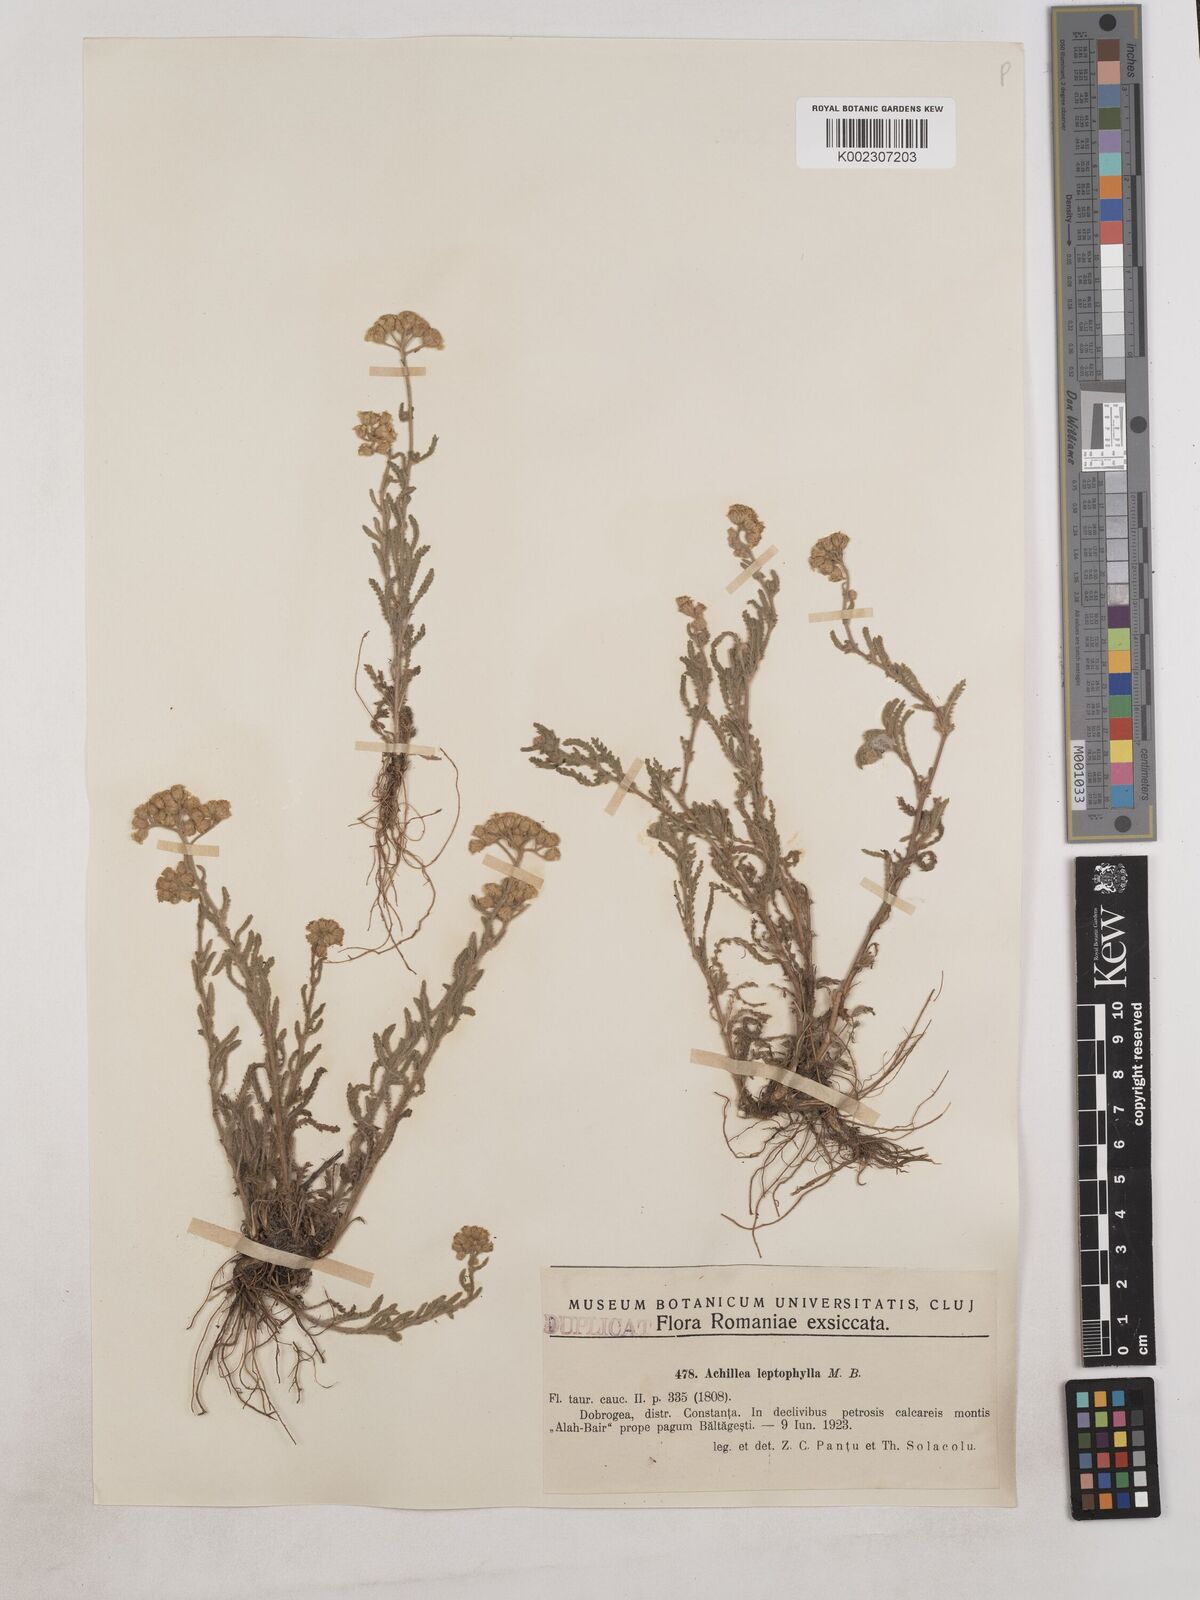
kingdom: Plantae
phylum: Tracheophyta
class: Magnoliopsida
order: Asterales
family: Asteraceae
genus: Achillea
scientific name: Achillea leptophylla
